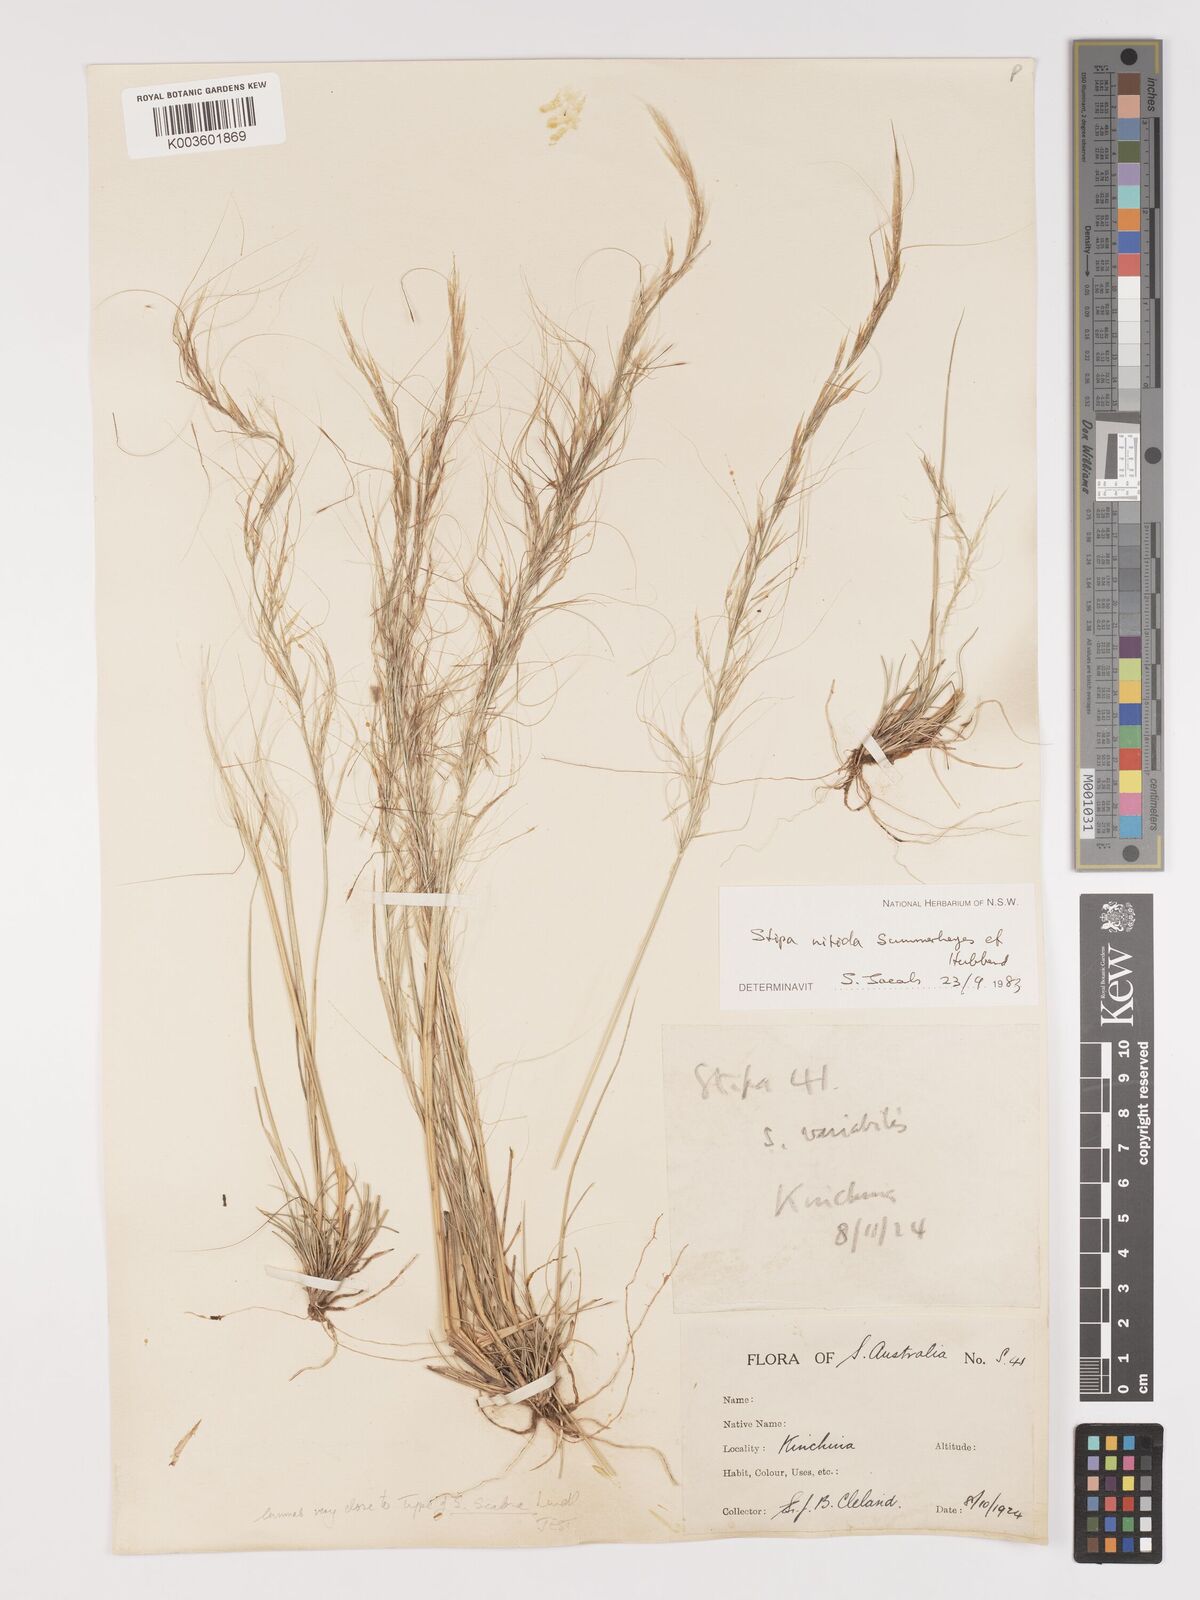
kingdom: Plantae
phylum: Tracheophyta
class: Liliopsida
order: Poales
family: Poaceae
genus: Austrostipa
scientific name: Austrostipa nitida
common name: Balcarra grass
